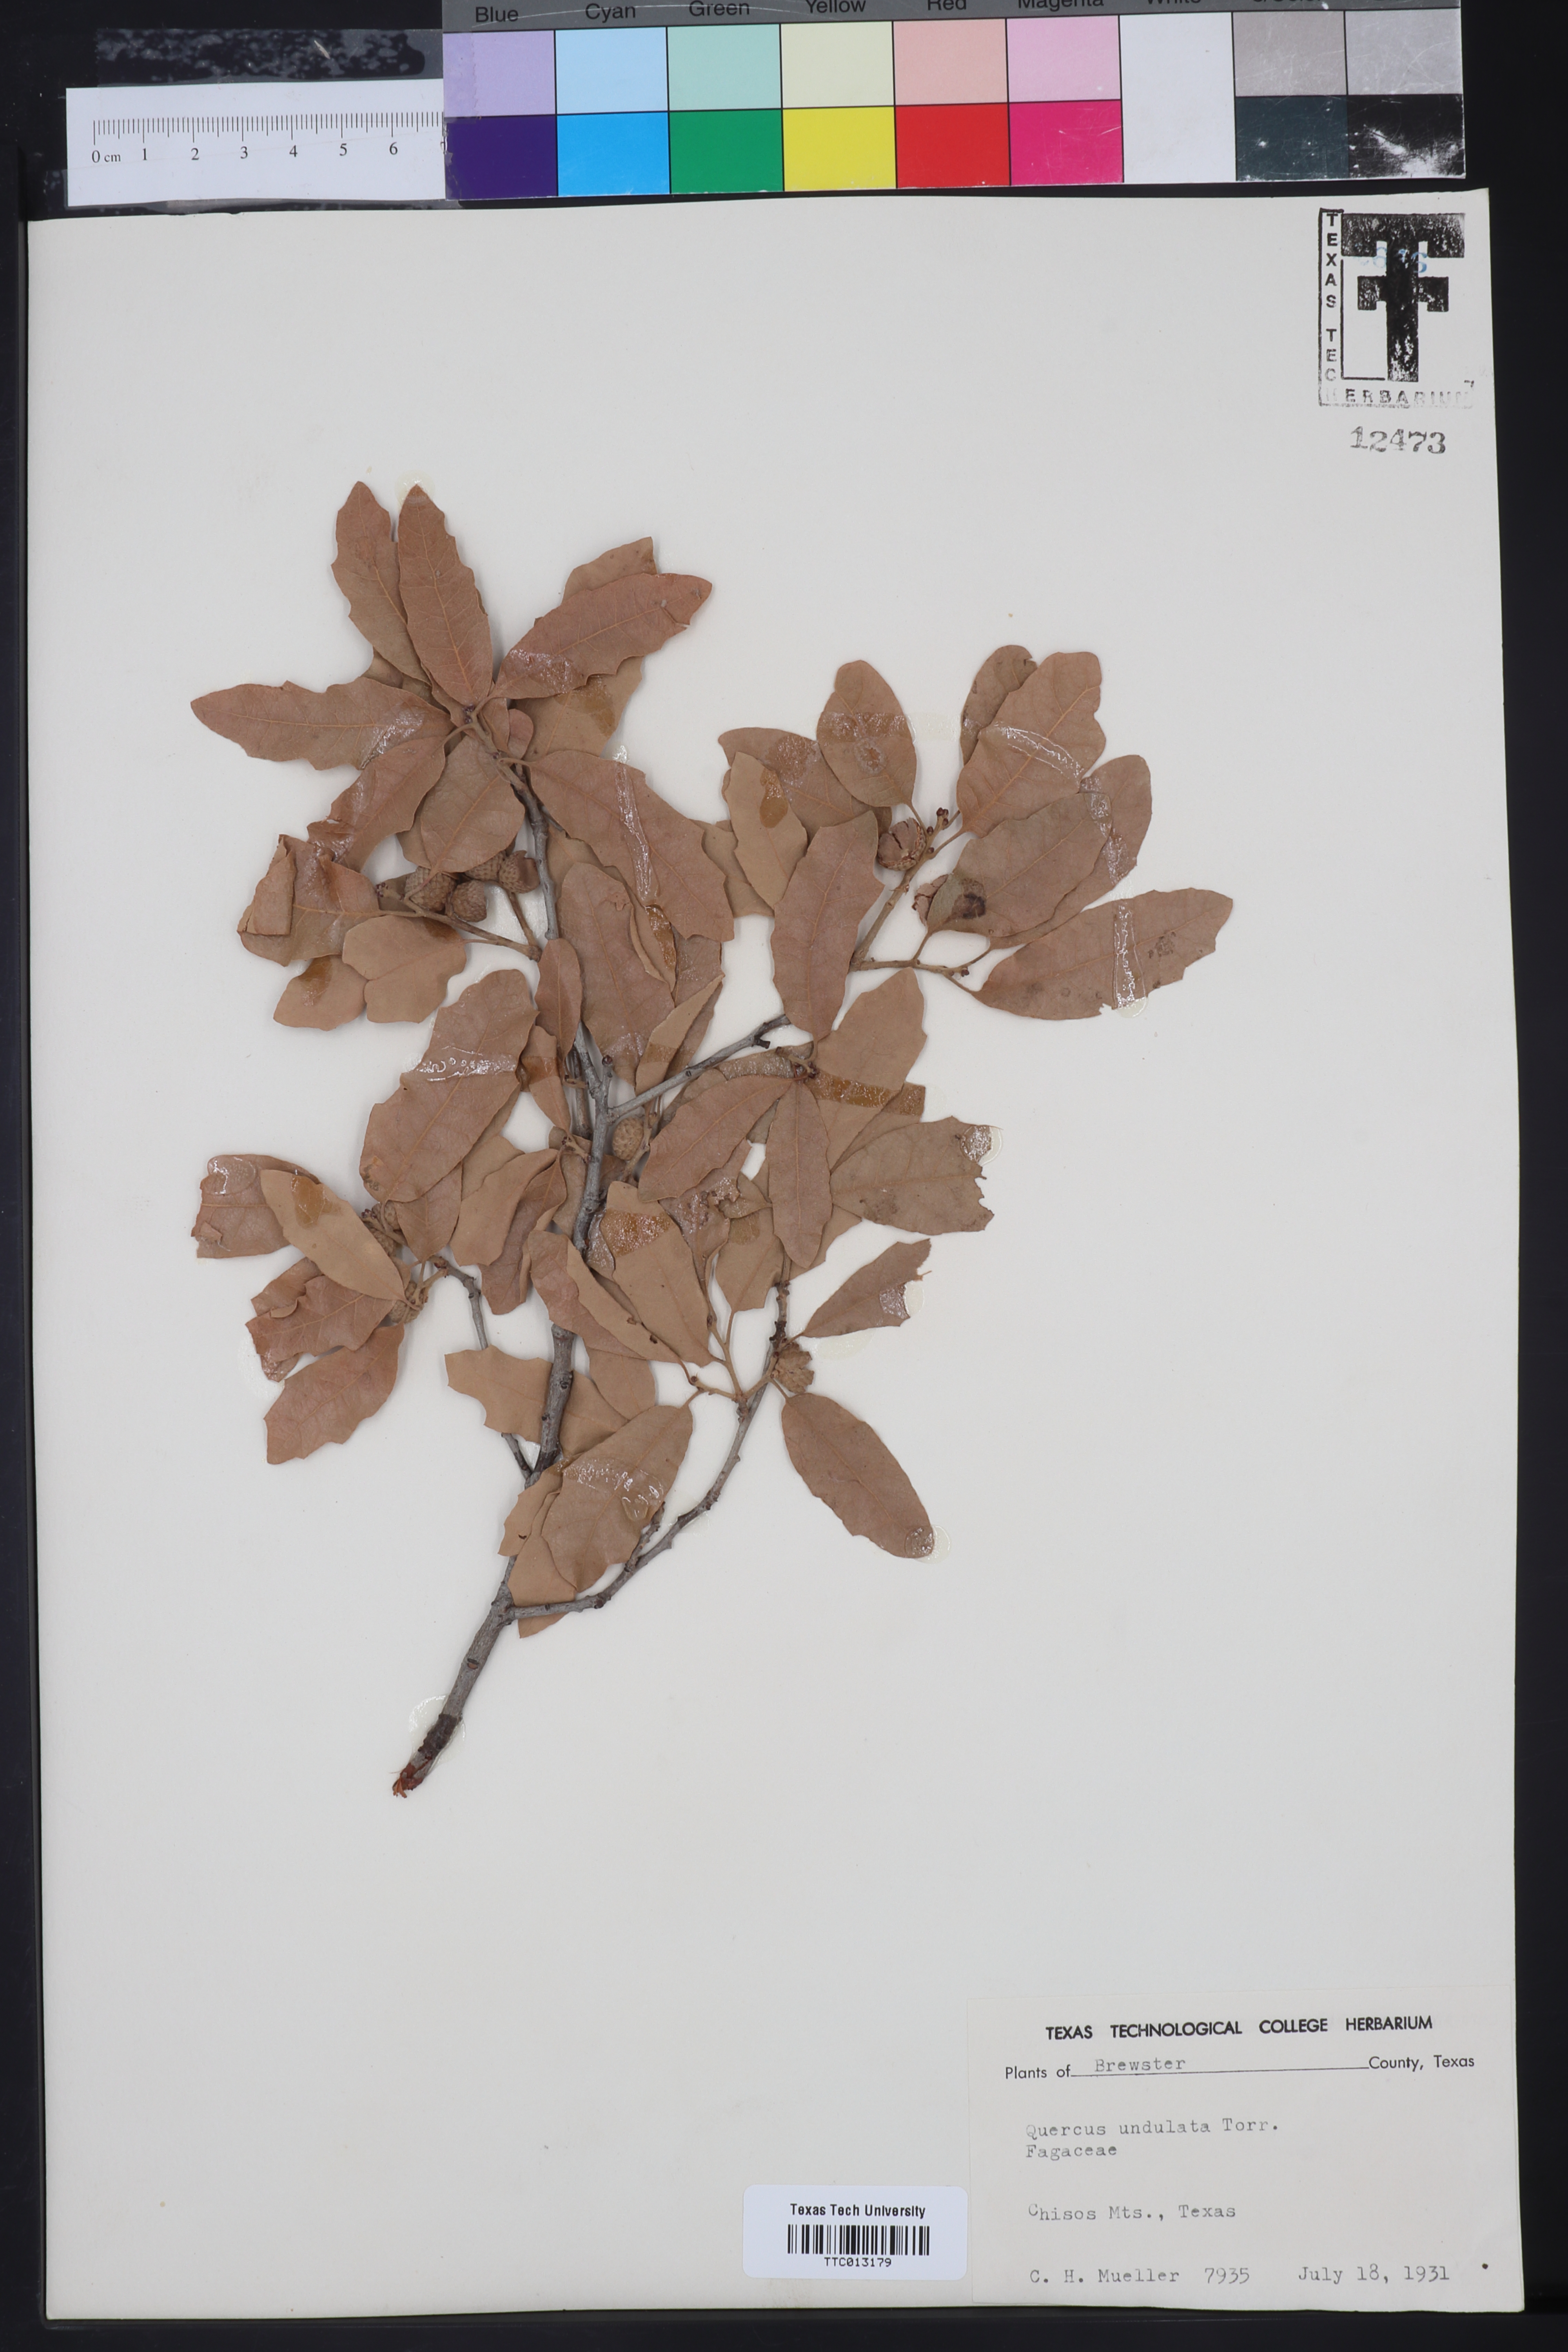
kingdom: Plantae
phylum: Tracheophyta
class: Magnoliopsida
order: Fagales
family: Fagaceae
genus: Quercus
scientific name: Quercus undulata
